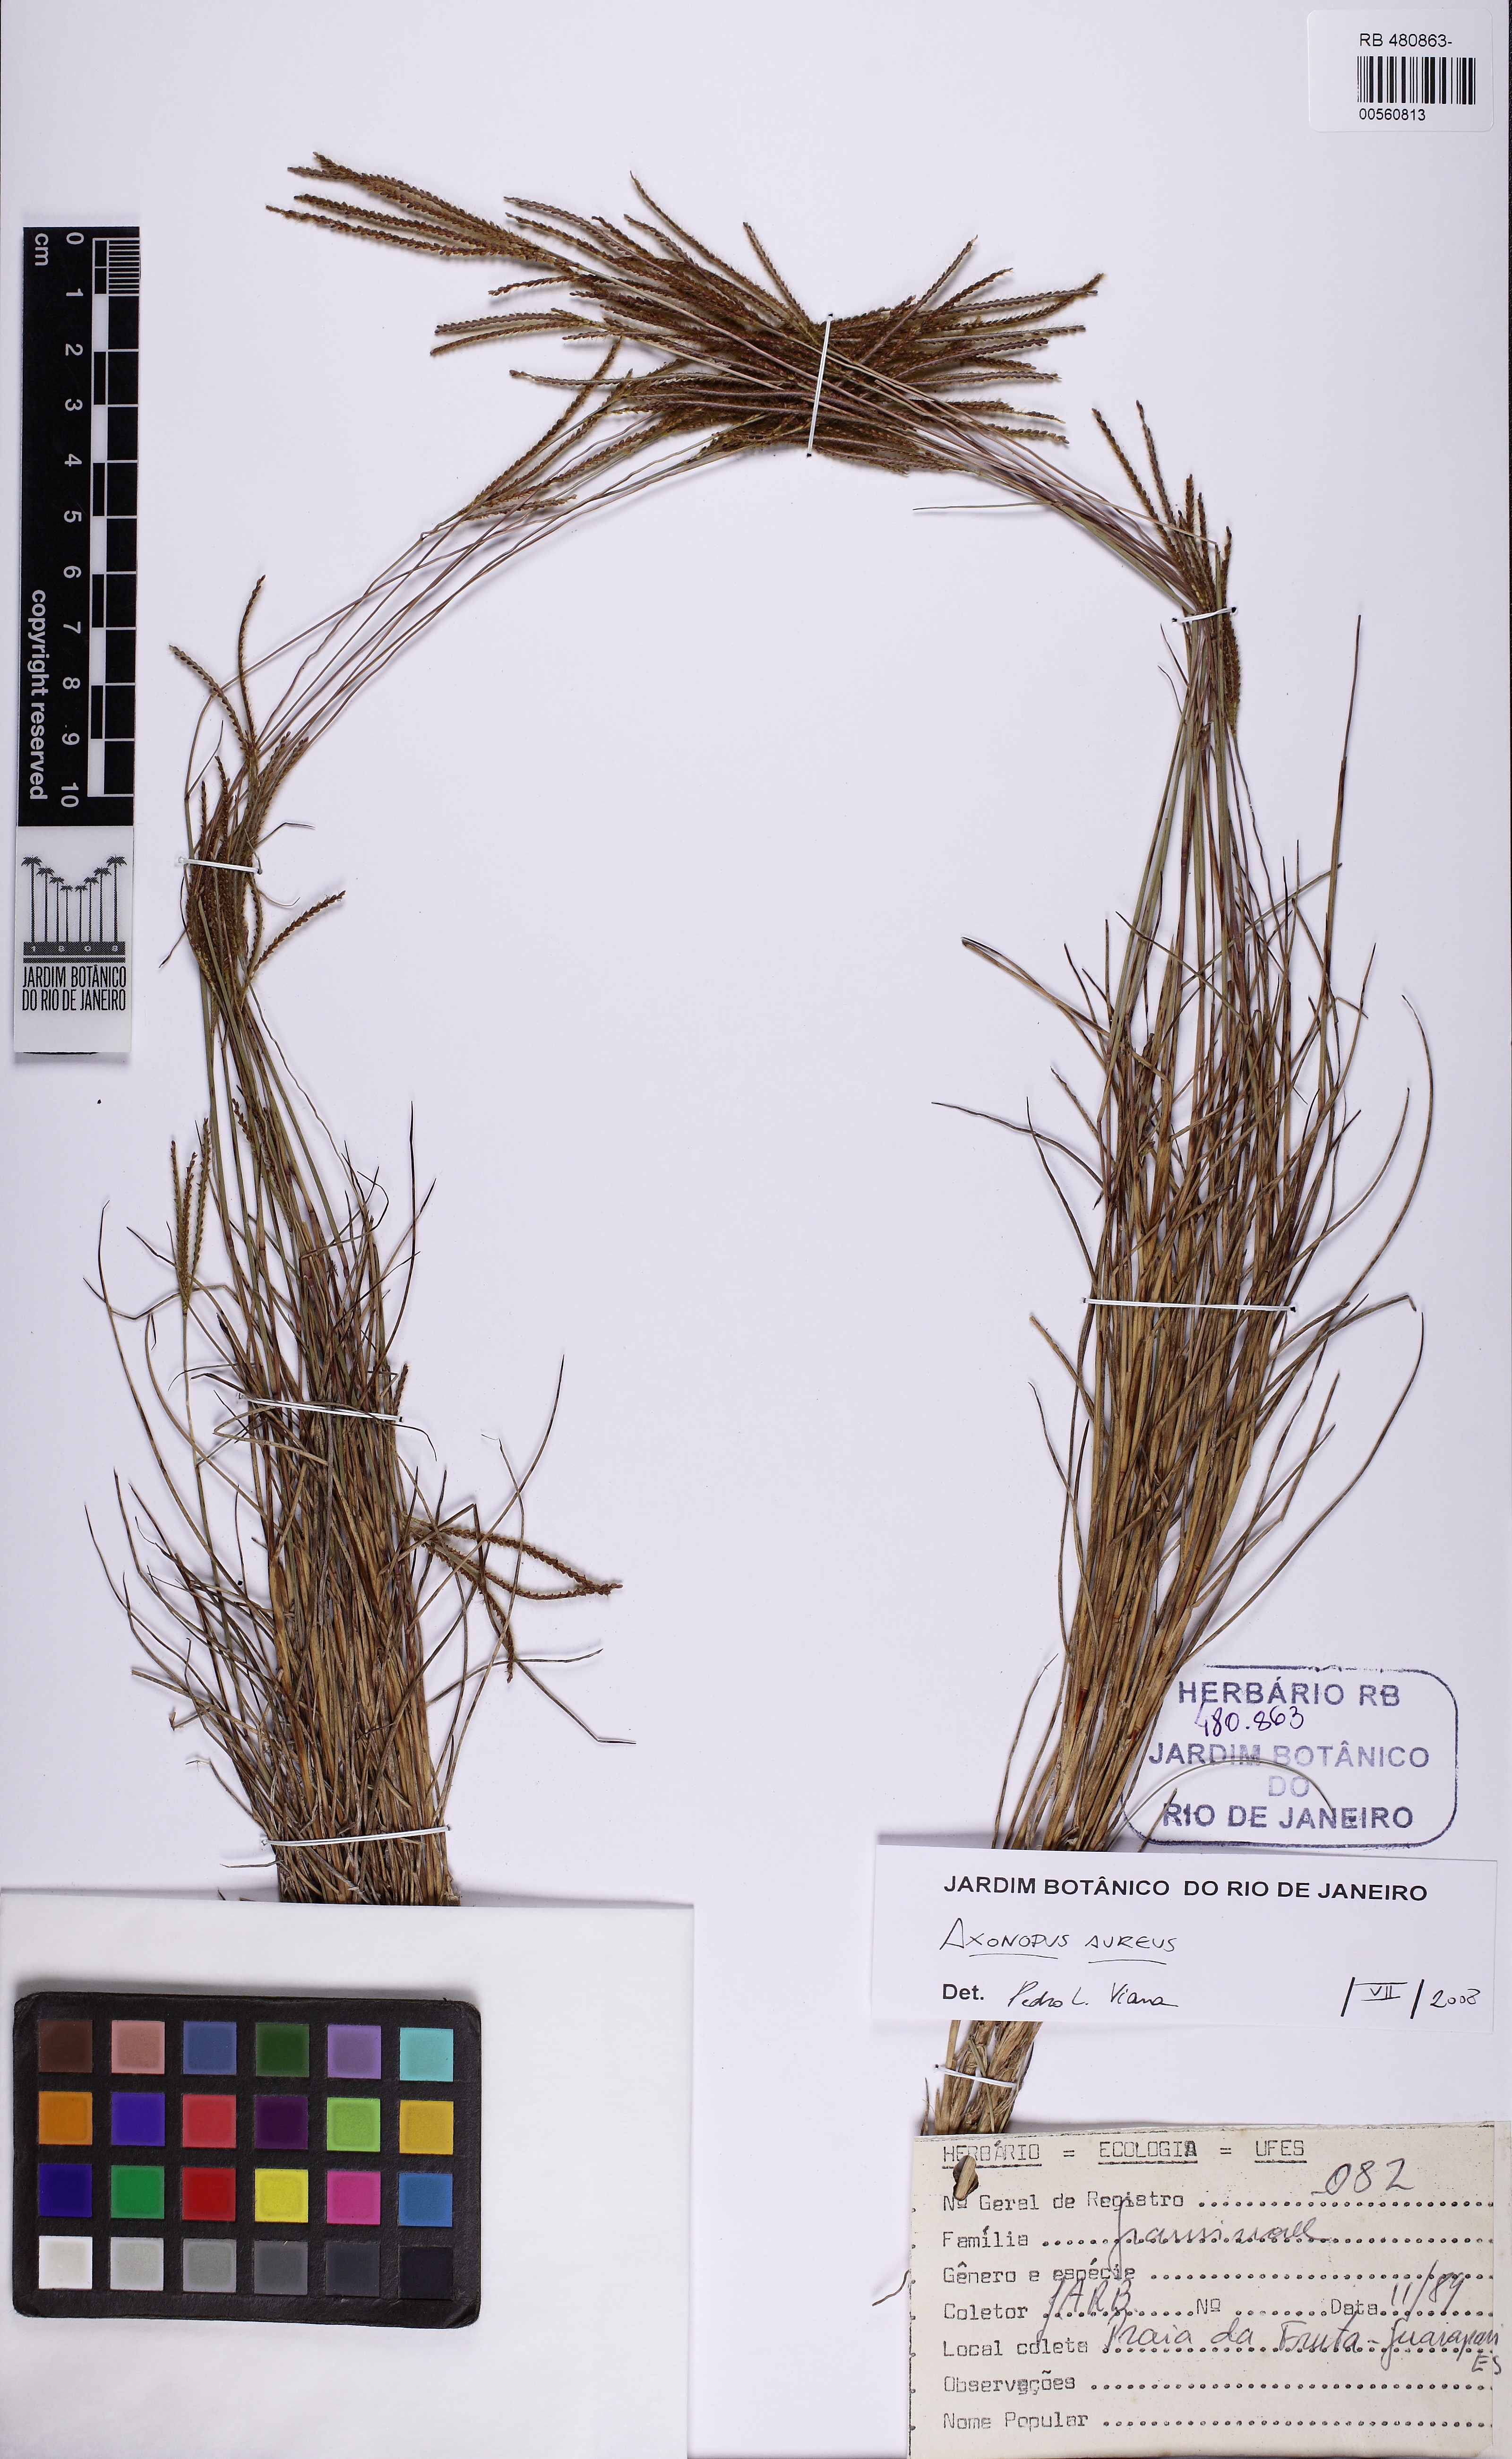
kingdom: Plantae
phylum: Tracheophyta
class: Liliopsida
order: Poales
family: Poaceae
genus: Axonopus
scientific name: Axonopus aureus
